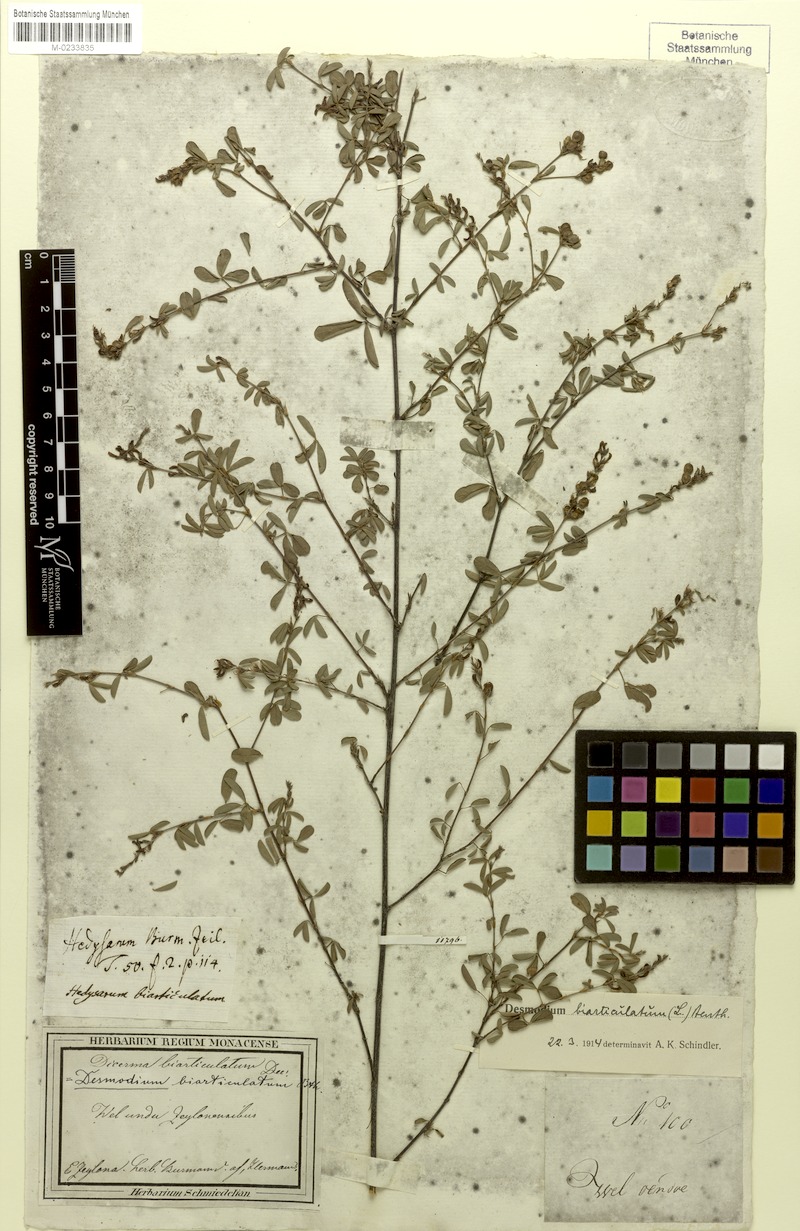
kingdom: Plantae
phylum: Tracheophyta
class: Magnoliopsida
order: Fabales
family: Fabaceae
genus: Aphyllodium
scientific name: Aphyllodium biarticulatum
